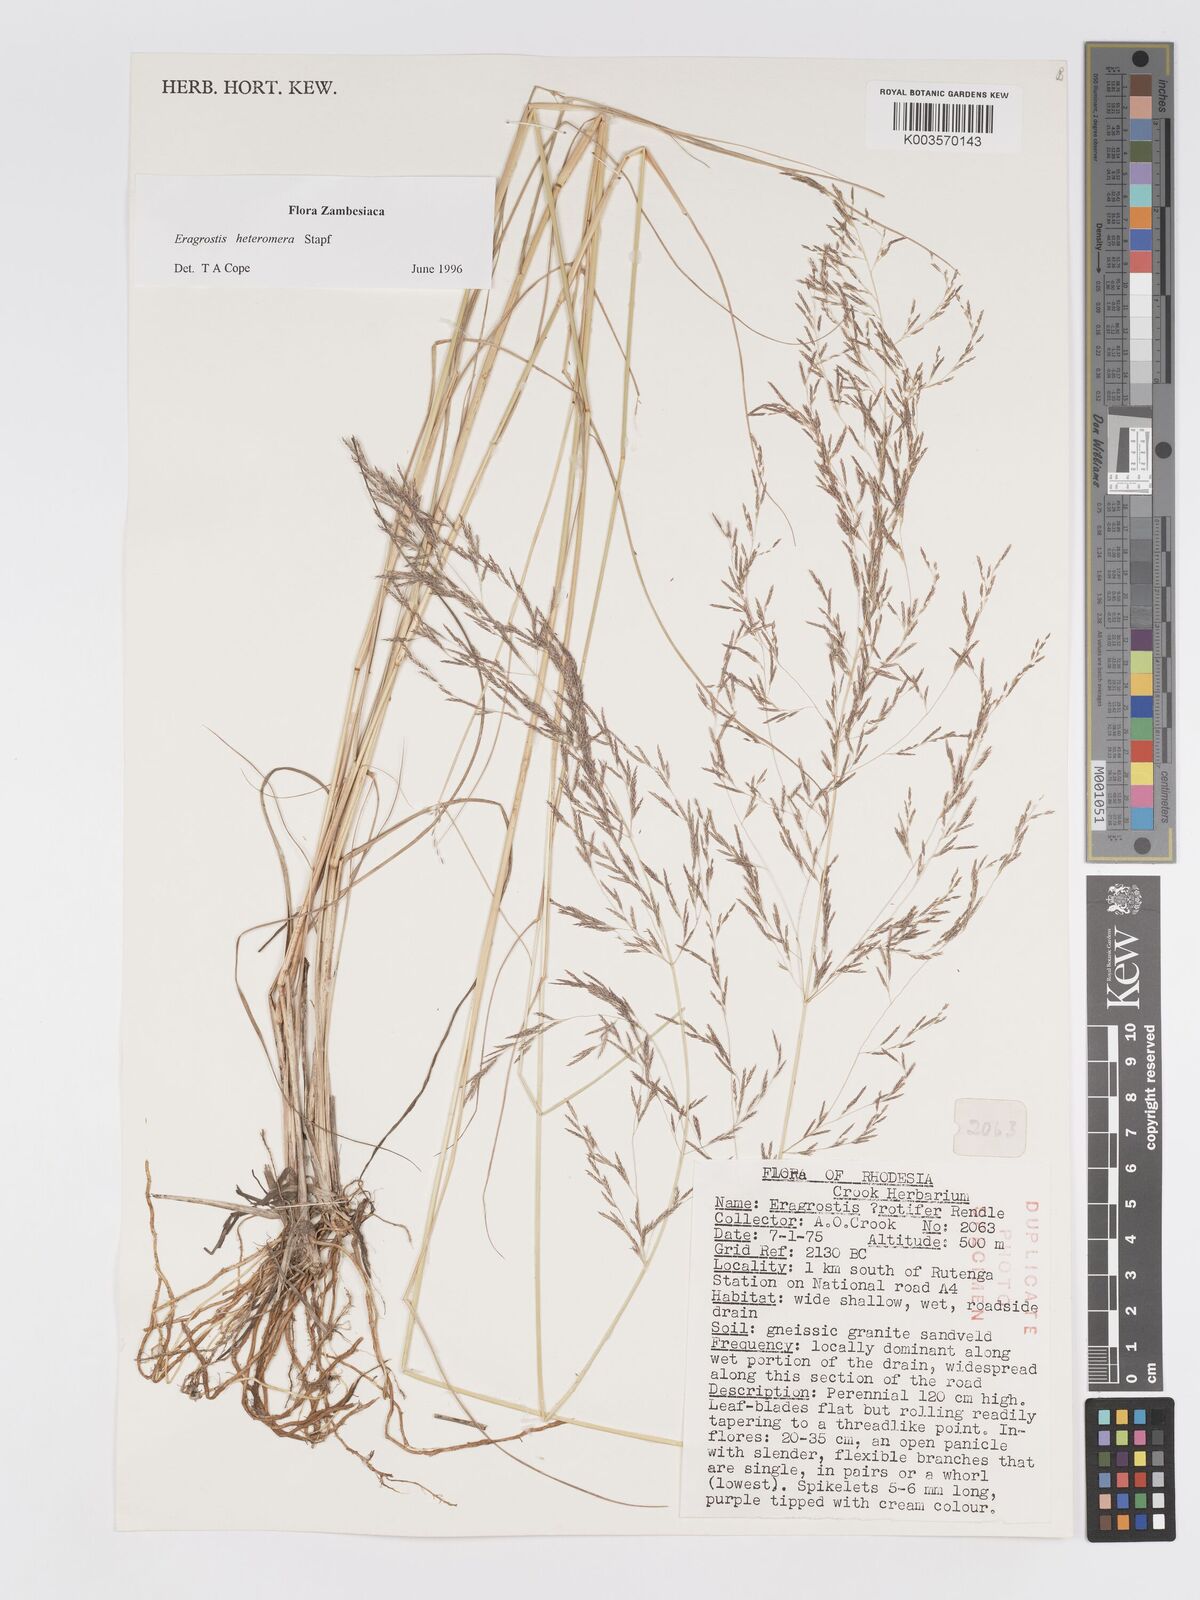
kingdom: Plantae
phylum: Tracheophyta
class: Liliopsida
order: Poales
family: Poaceae
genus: Eragrostis
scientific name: Eragrostis heteromera
